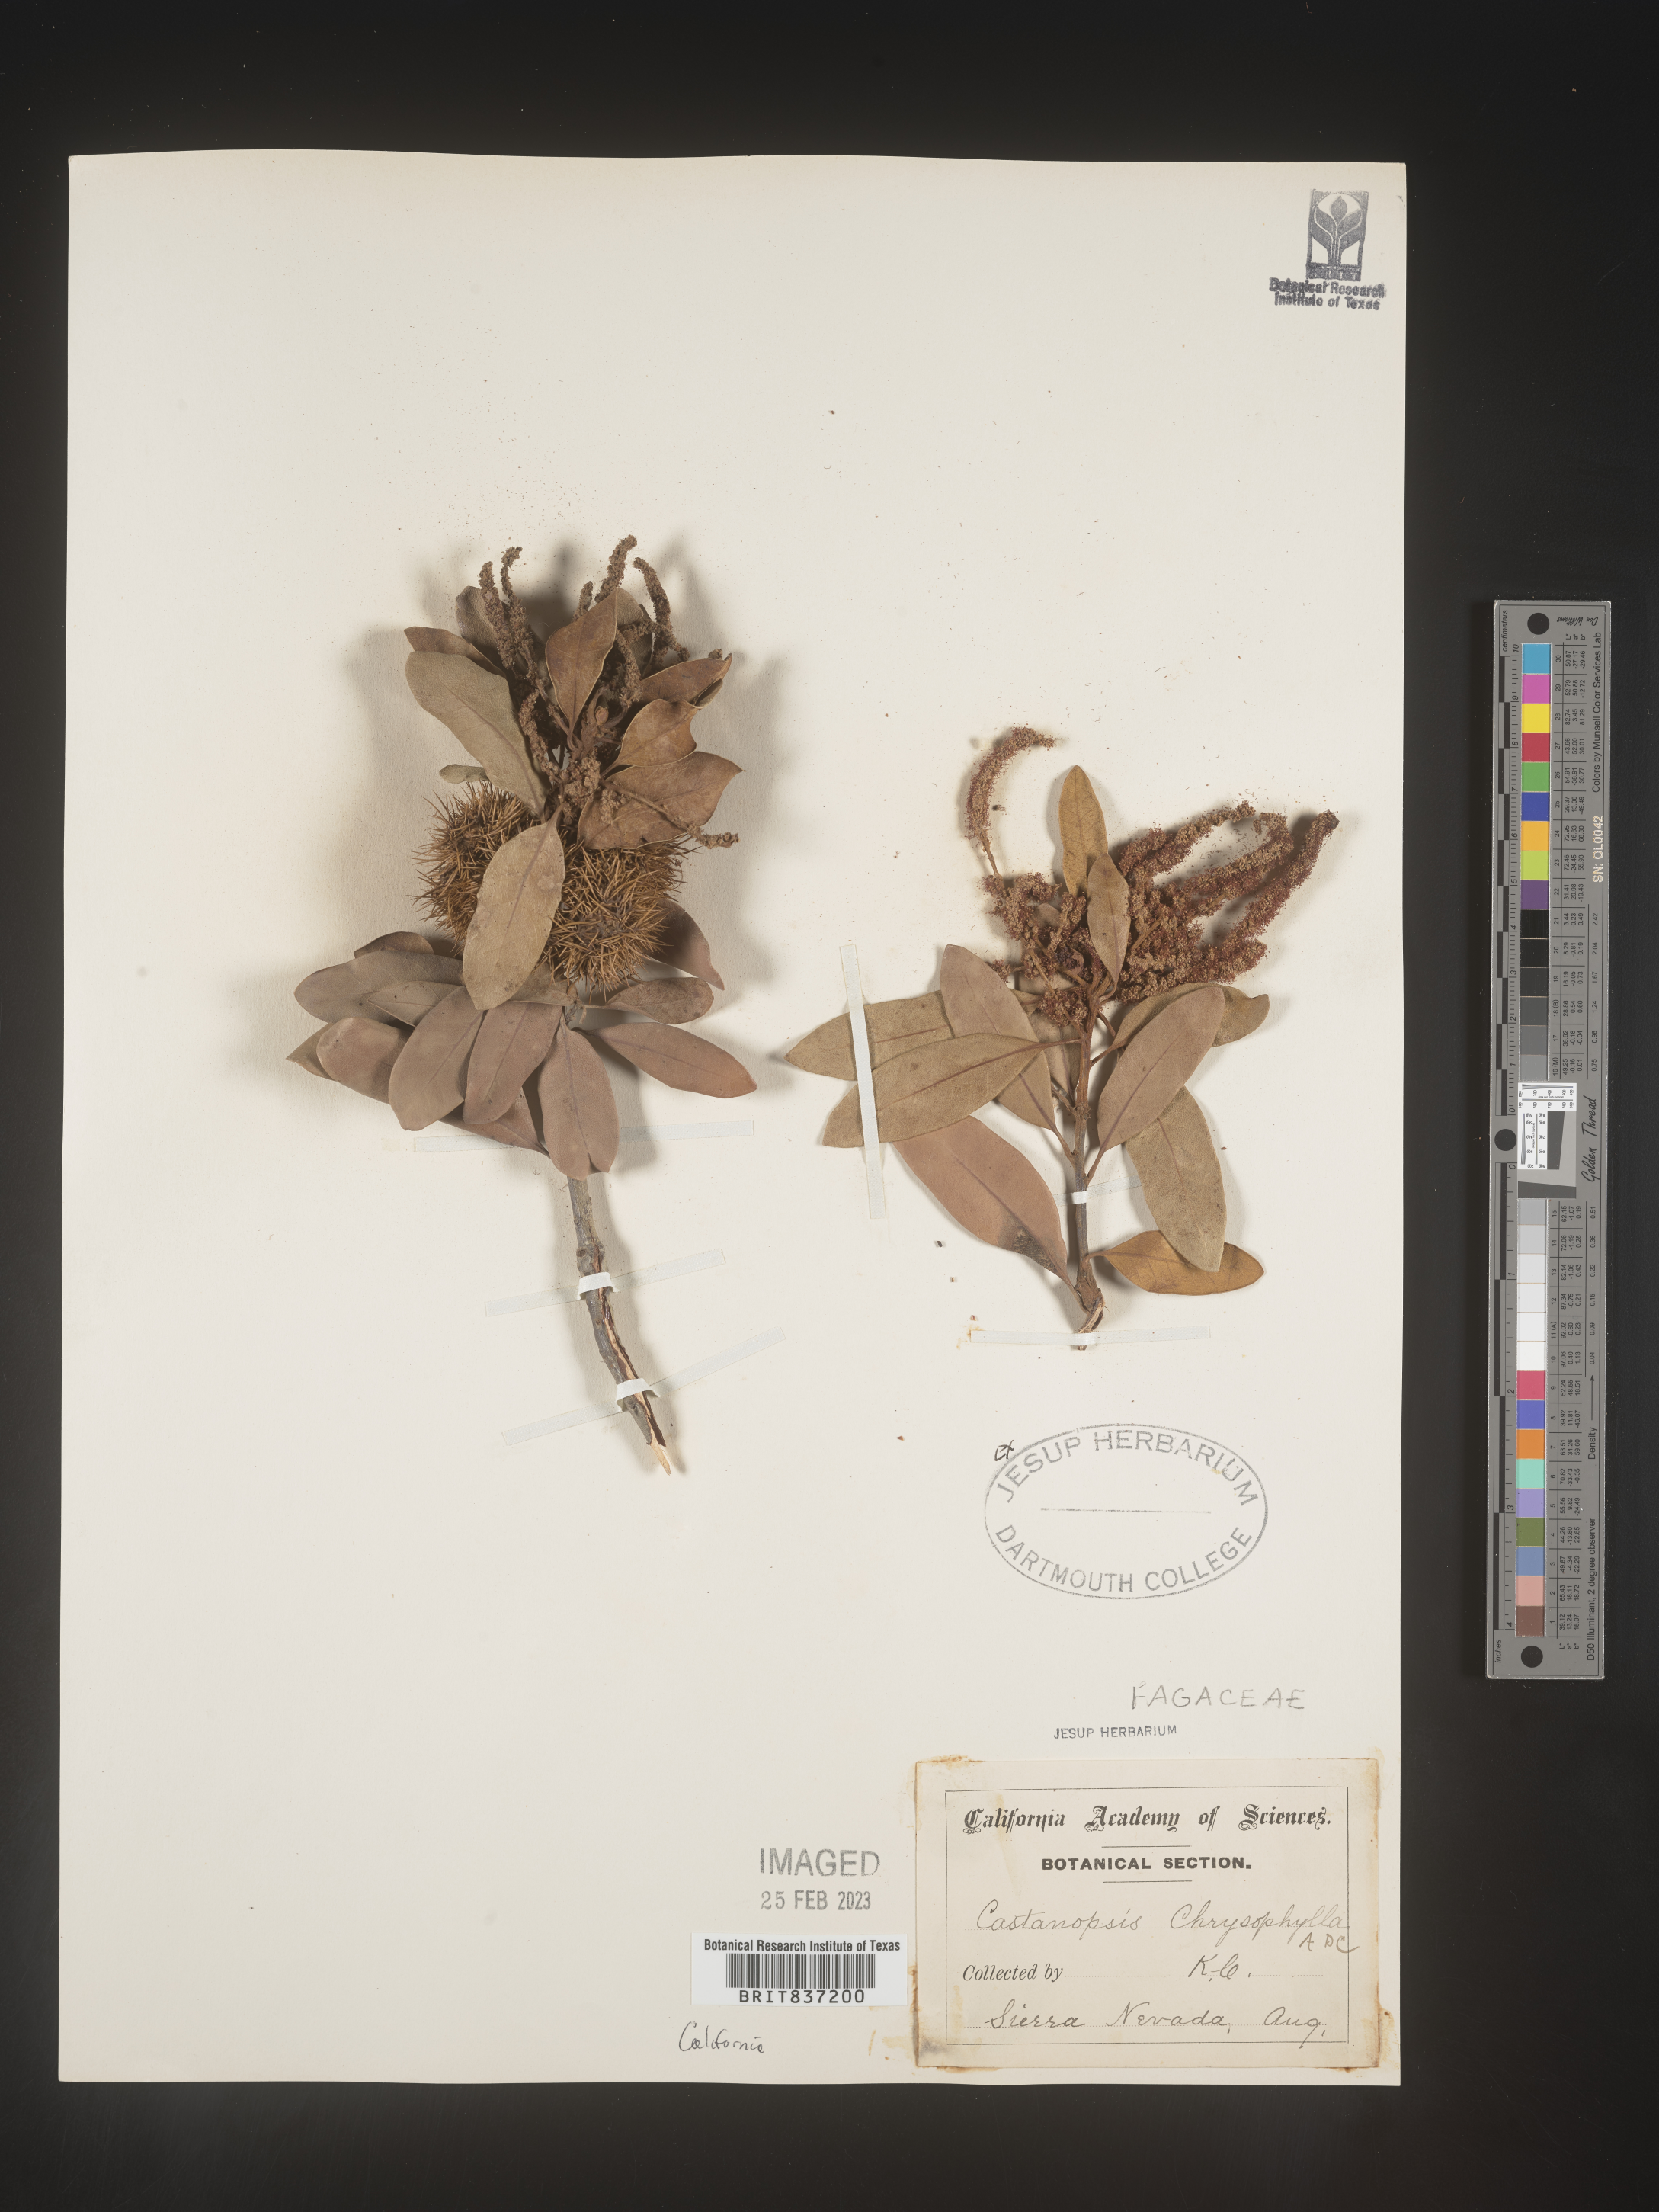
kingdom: Plantae
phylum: Tracheophyta
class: Magnoliopsida
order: Fagales
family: Fagaceae
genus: Castanopsis
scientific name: Castanopsis
